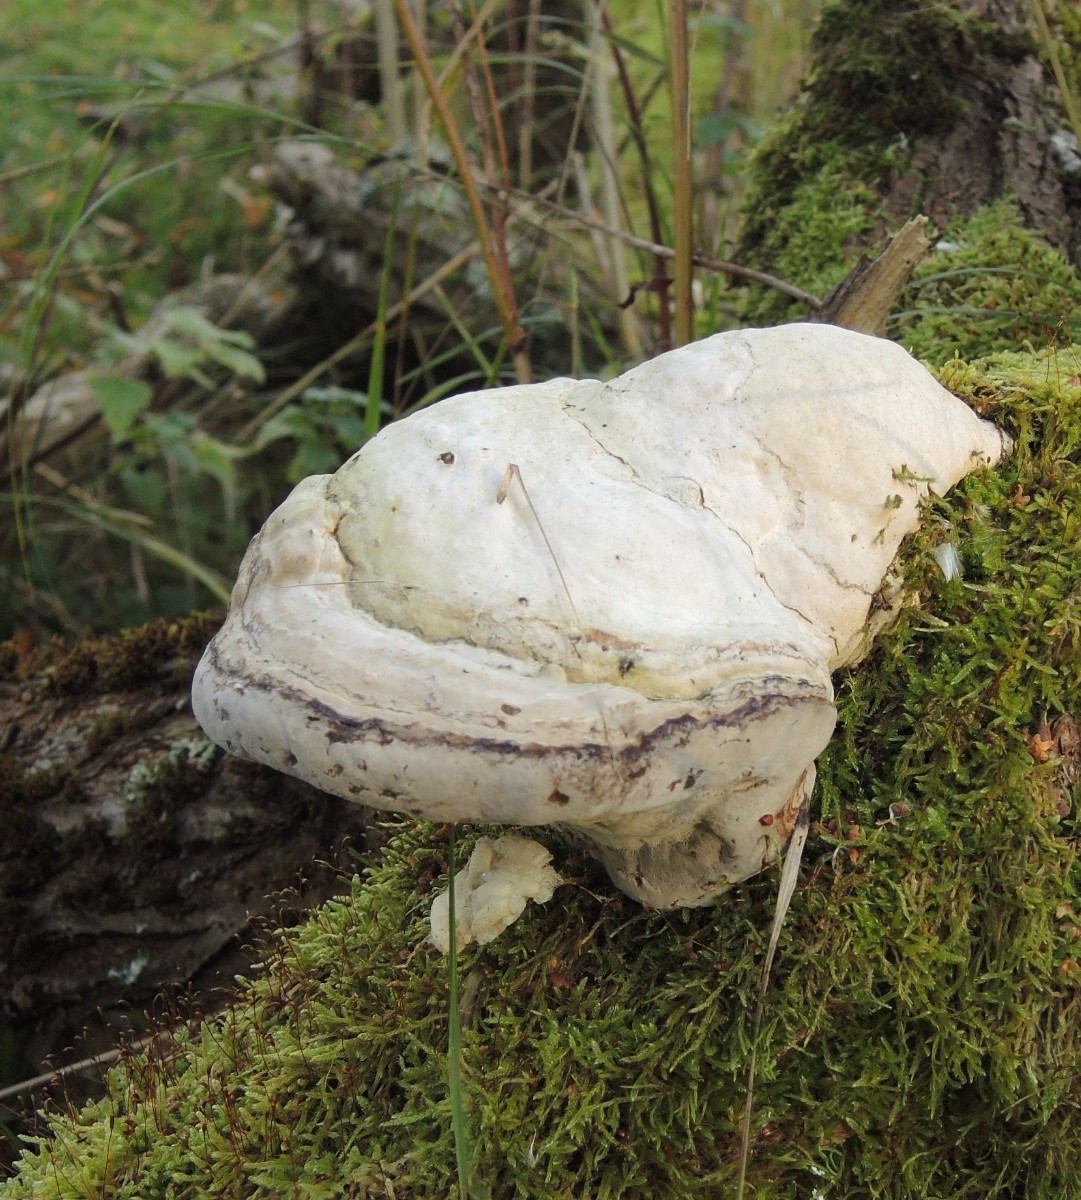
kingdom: Fungi
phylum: Basidiomycota
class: Agaricomycetes
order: Polyporales
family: Polyporaceae
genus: Fomes
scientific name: Fomes fomentarius
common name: tøndersvamp
